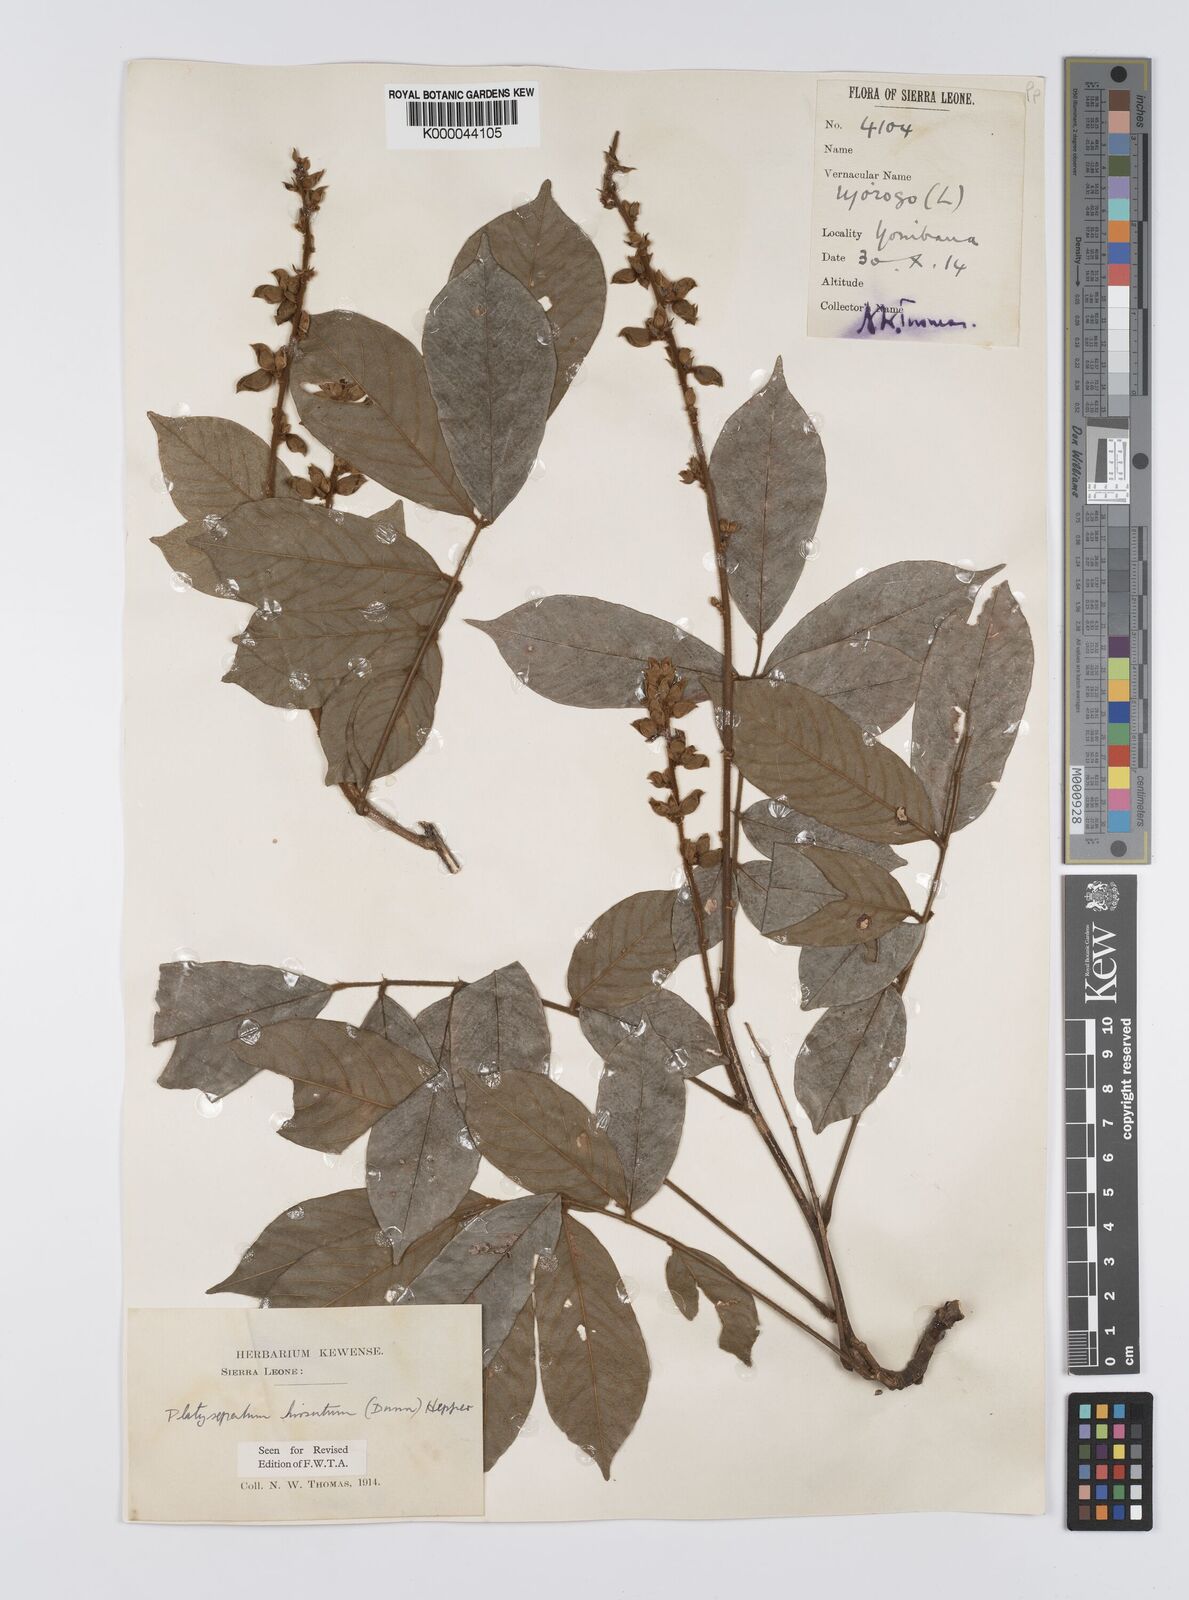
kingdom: Plantae
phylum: Tracheophyta
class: Magnoliopsida
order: Fabales
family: Fabaceae
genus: Platysepalum
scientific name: Platysepalum hirsutum
